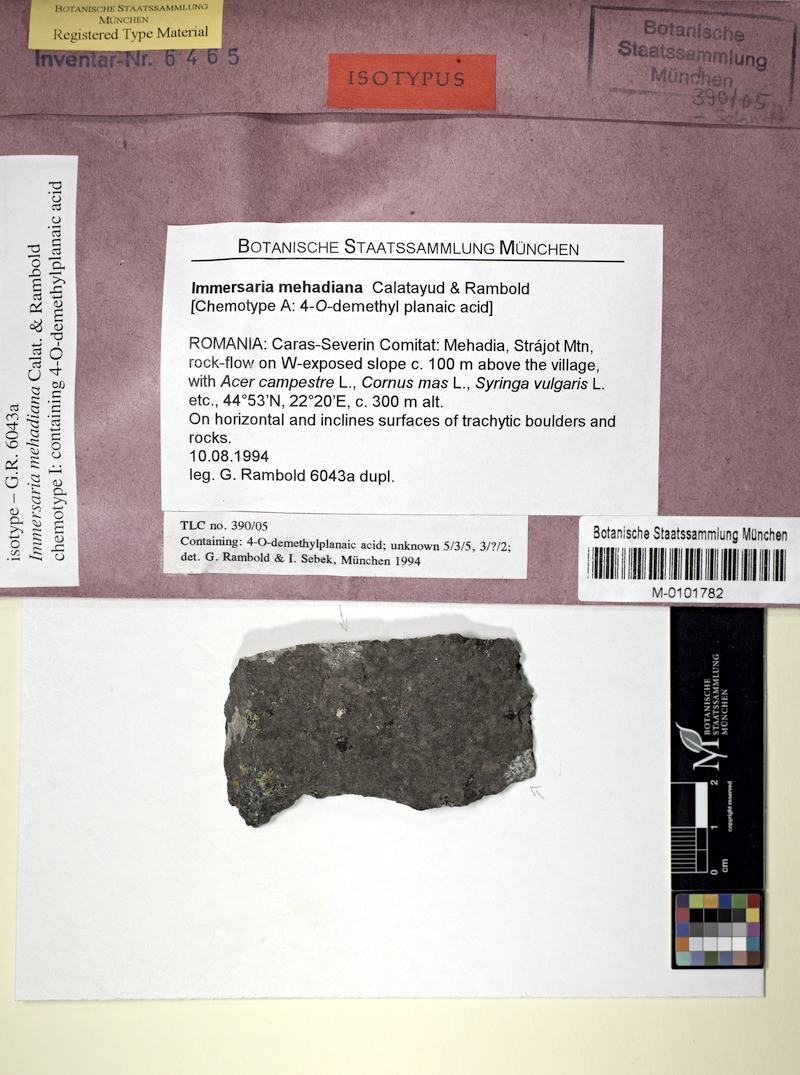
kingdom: Fungi
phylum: Ascomycota
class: Lecanoromycetes
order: Lecideales
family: Lecideaceae
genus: Immersaria
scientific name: Immersaria
